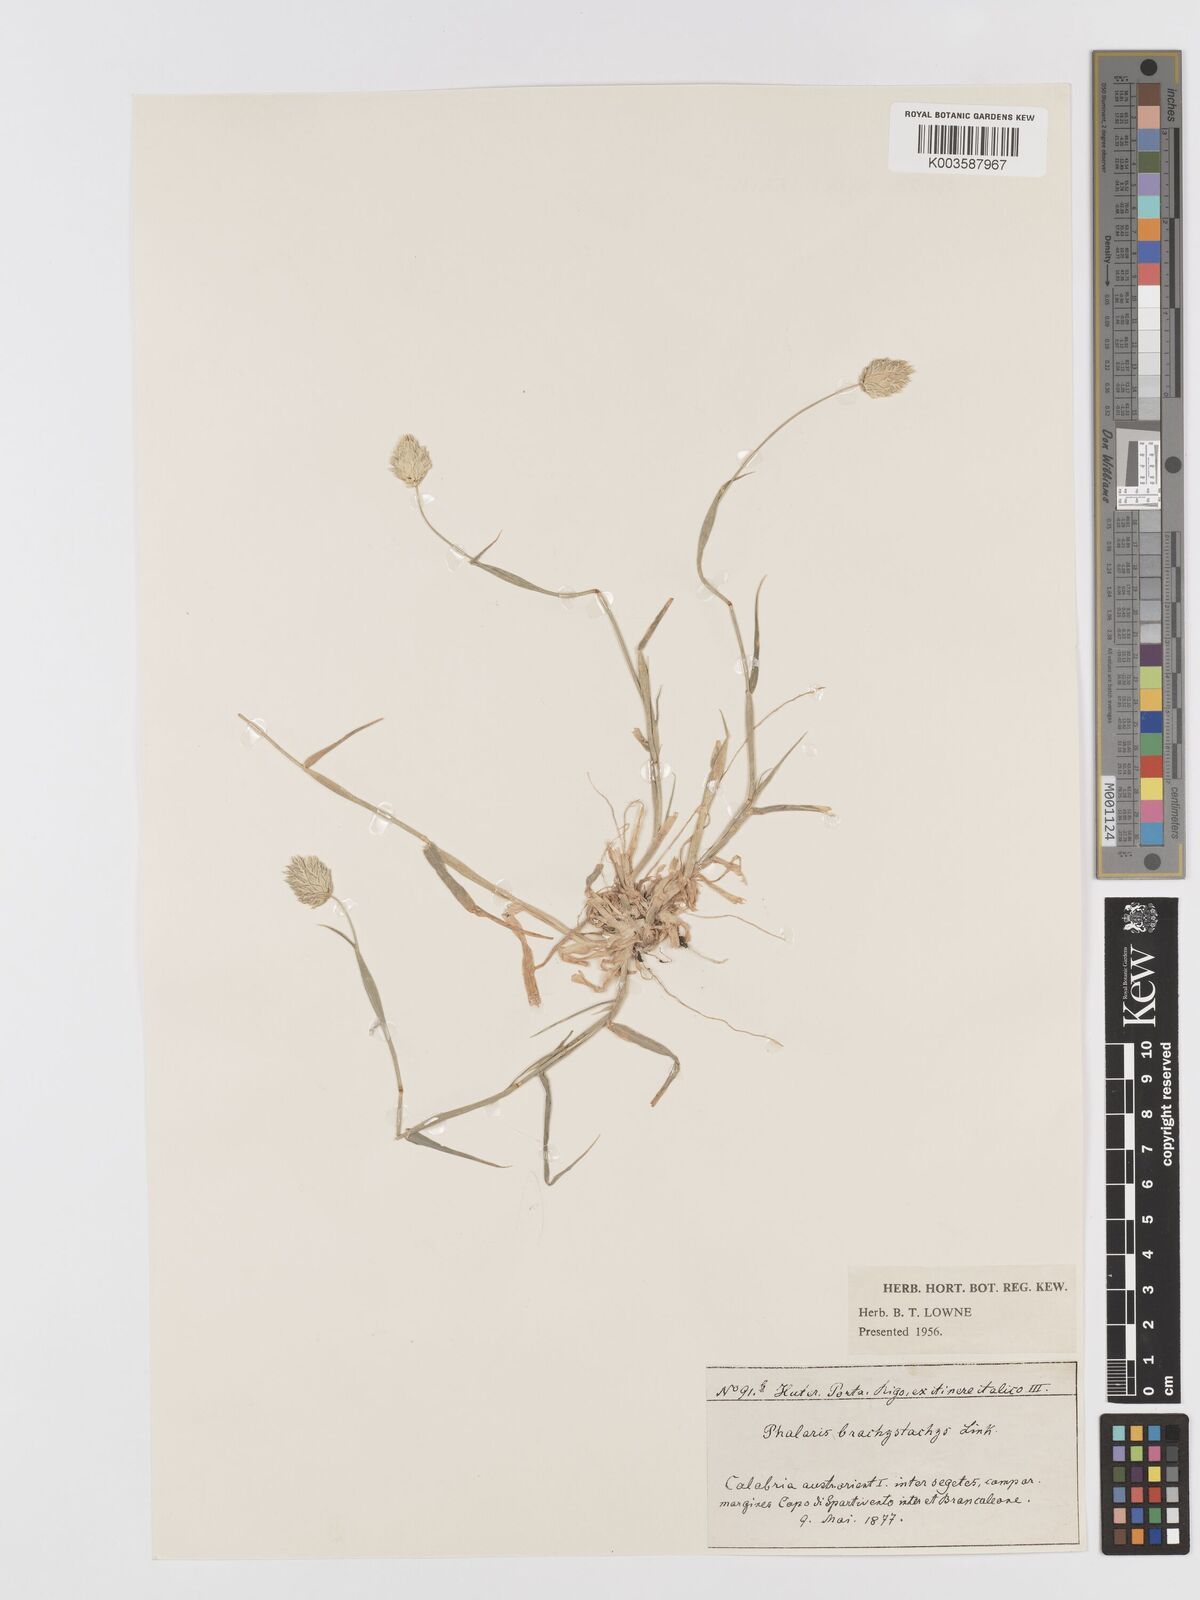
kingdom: Plantae
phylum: Tracheophyta
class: Liliopsida
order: Poales
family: Poaceae
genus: Phalaris
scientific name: Phalaris brachystachys
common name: Confused canary-grass
